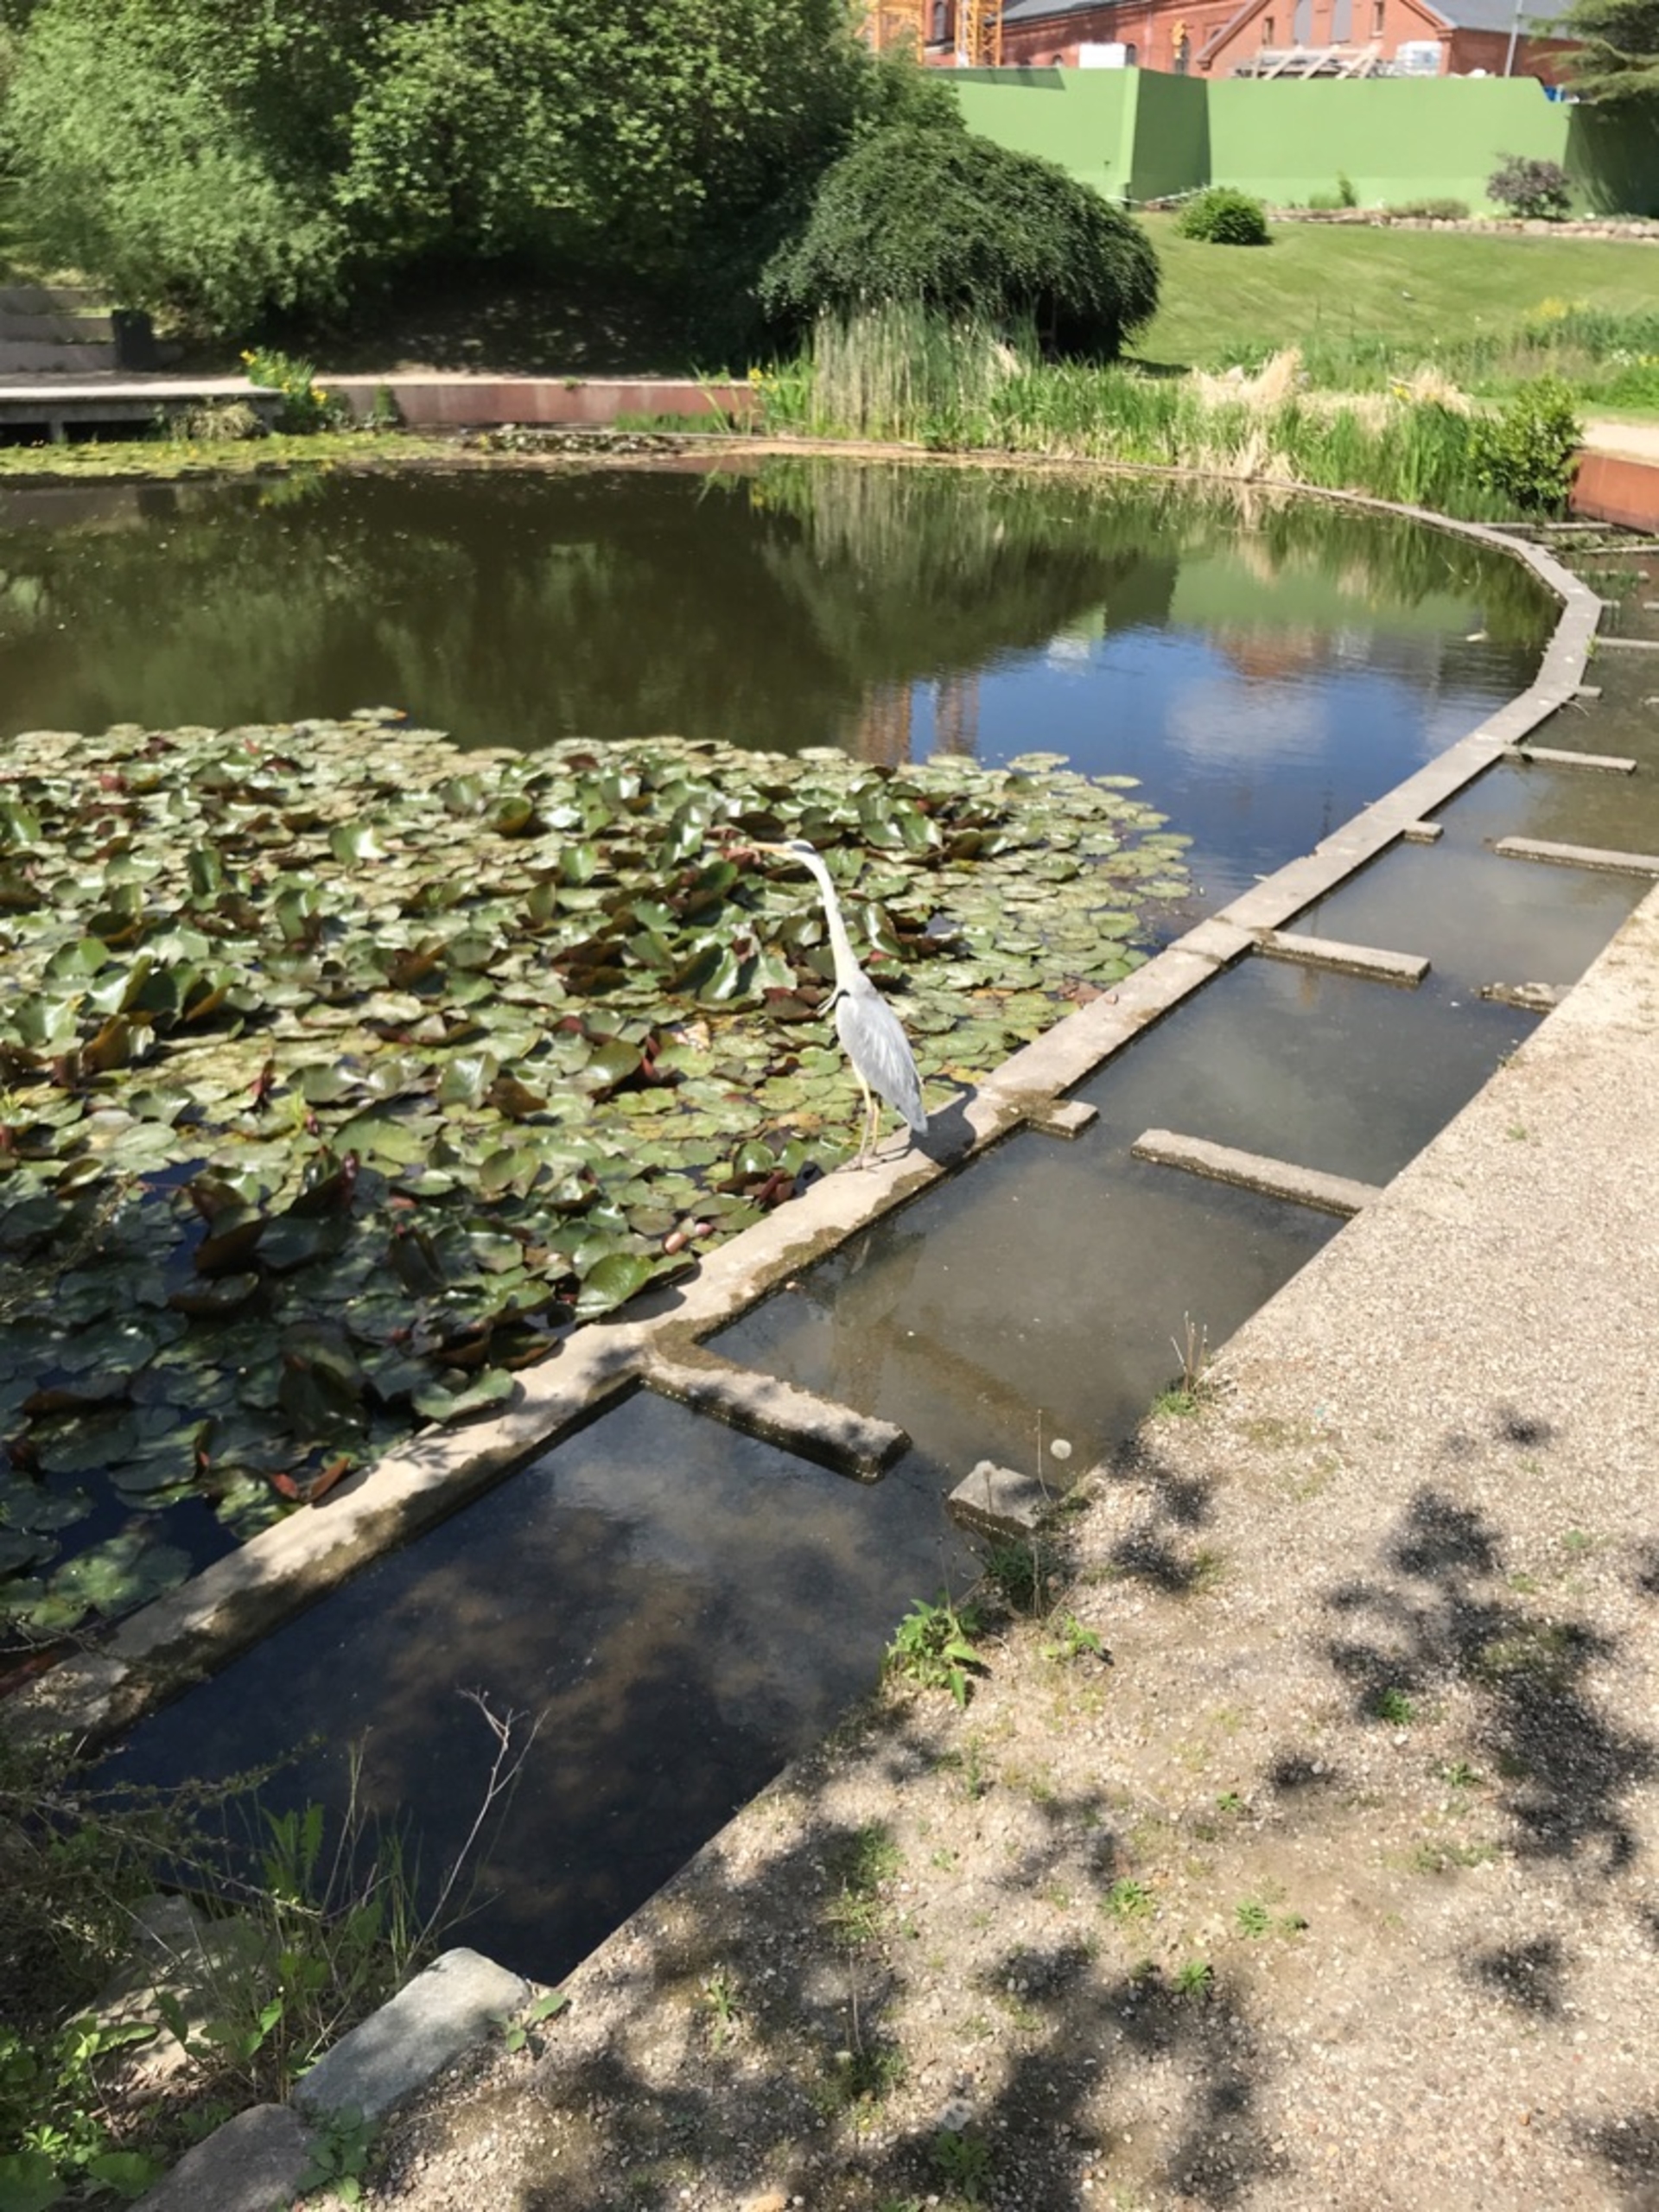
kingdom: Animalia
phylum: Chordata
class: Aves
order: Pelecaniformes
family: Ardeidae
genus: Ardea
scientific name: Ardea cinerea
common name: Fiskehejre
